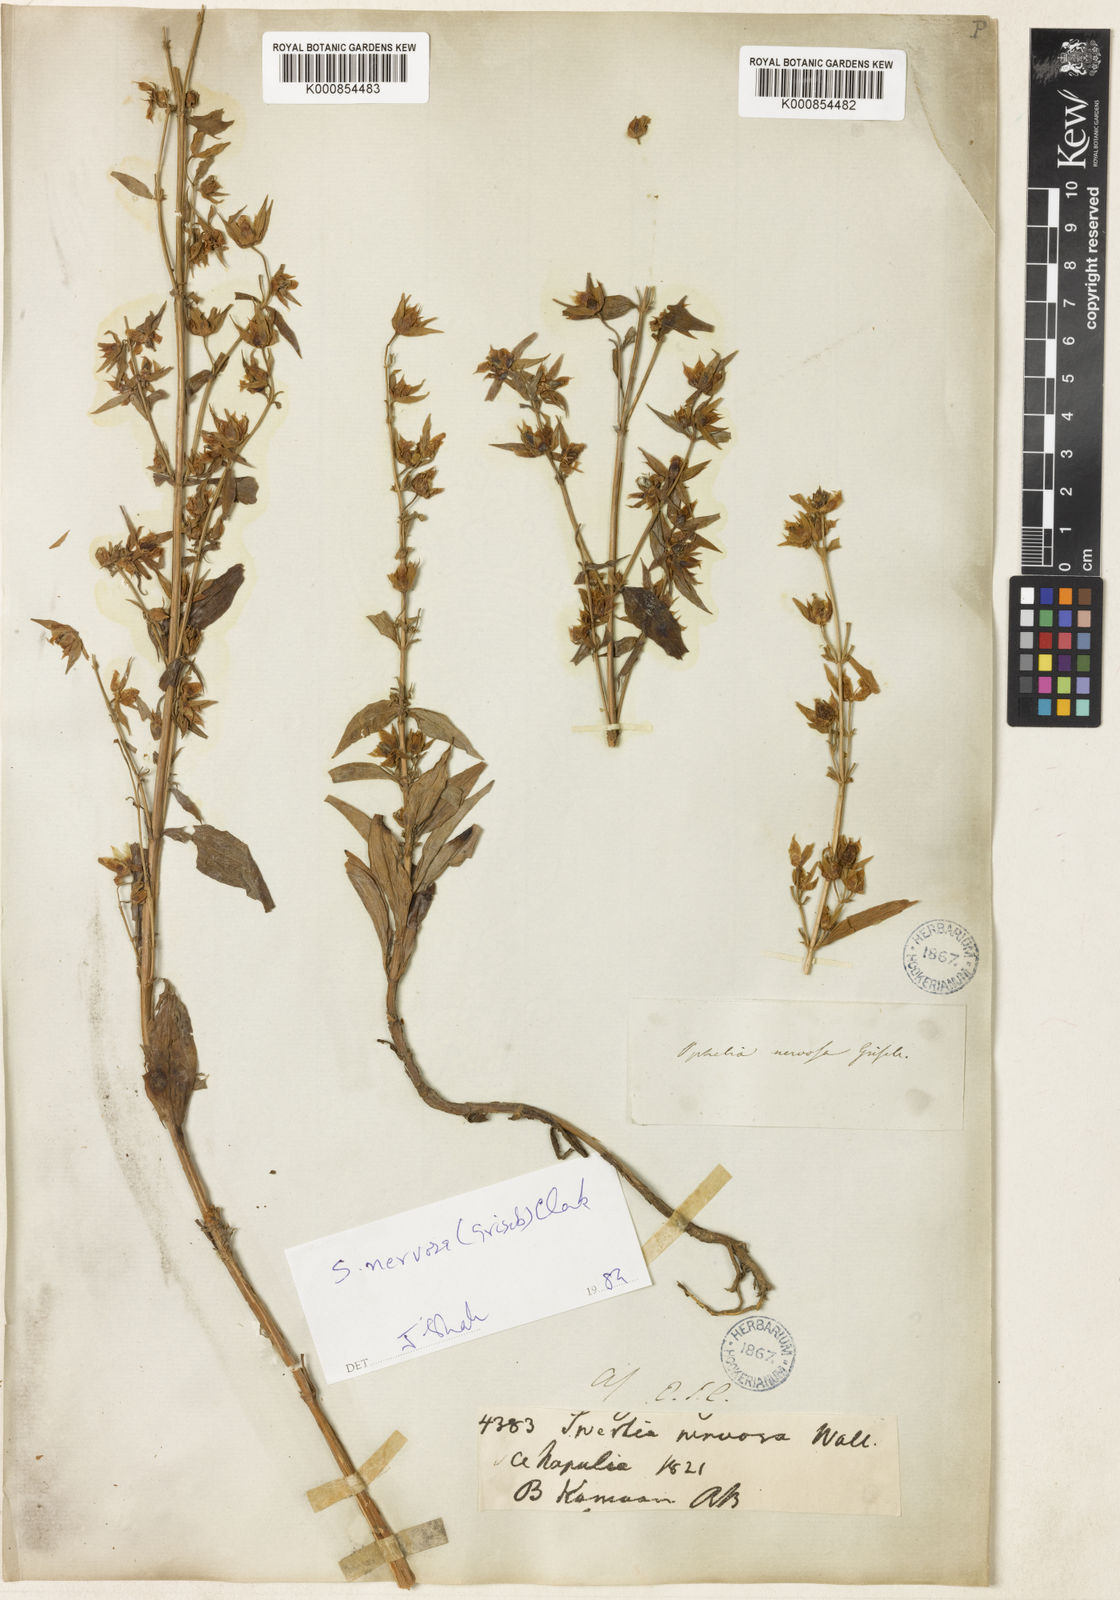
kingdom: Plantae
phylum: Tracheophyta
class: Magnoliopsida
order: Gentianales
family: Gentianaceae
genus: Swertia
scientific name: Swertia nervosa
